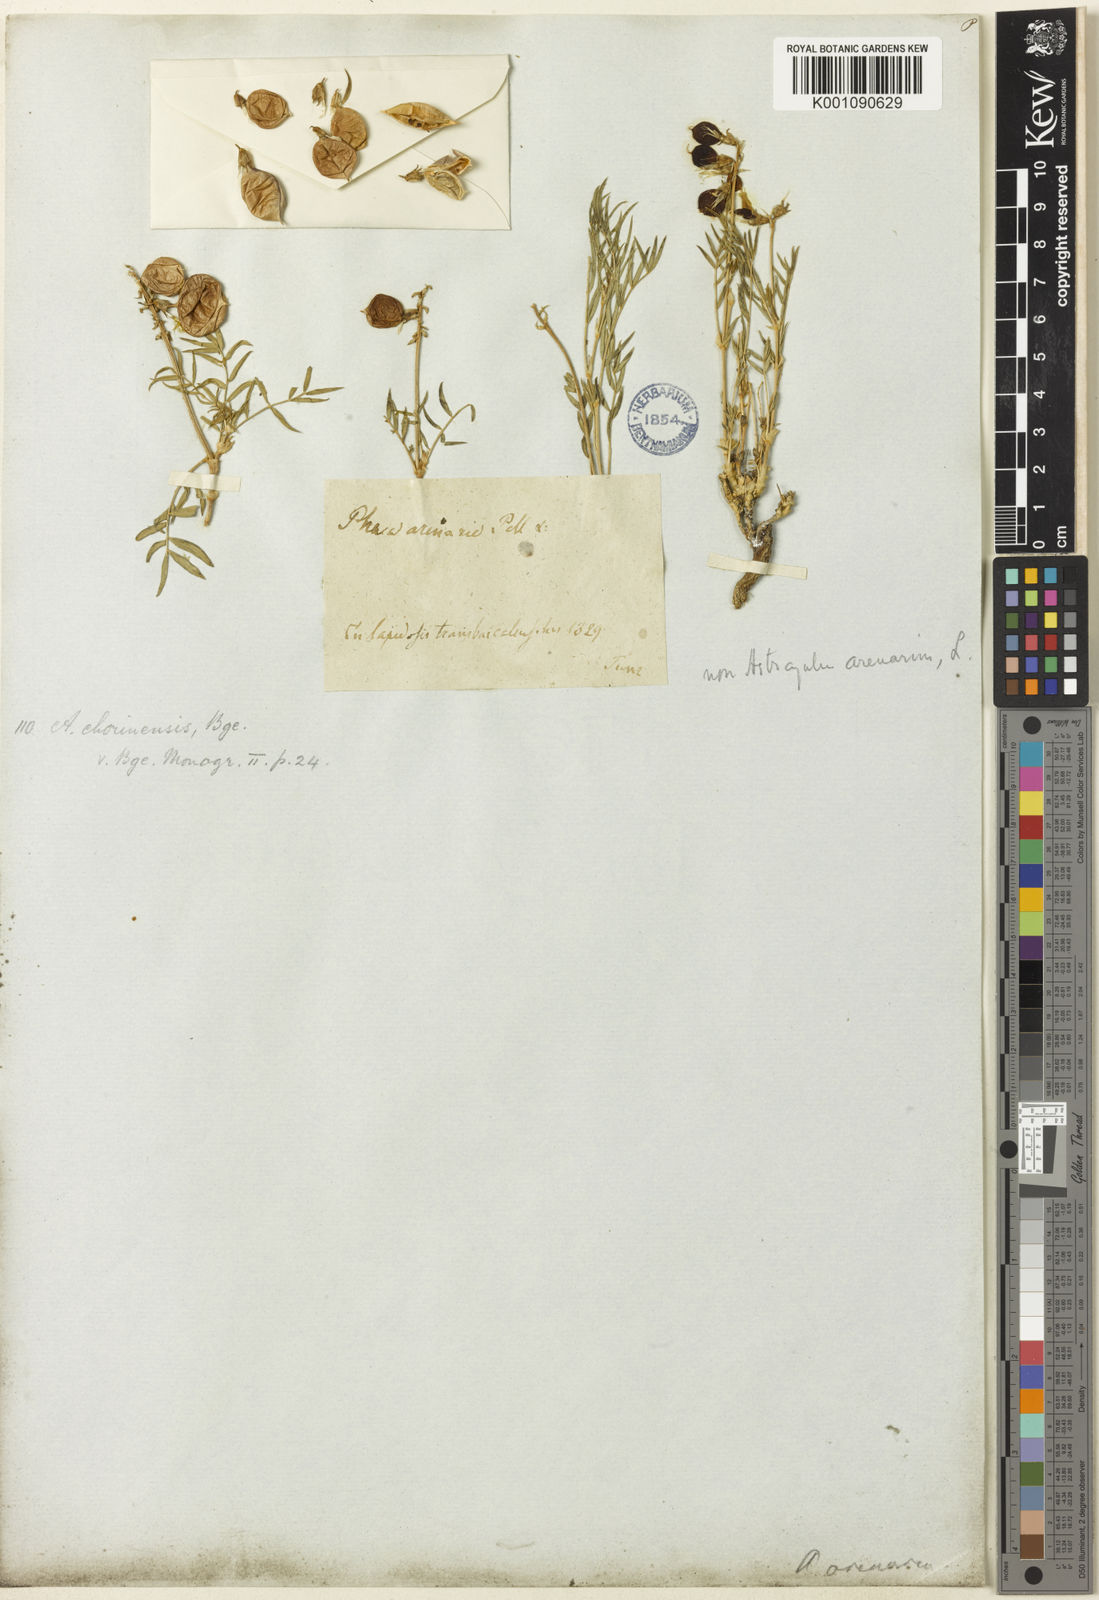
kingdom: Plantae
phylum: Tracheophyta
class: Magnoliopsida
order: Fabales
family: Fabaceae
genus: Astragalus
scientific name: Astragalus
